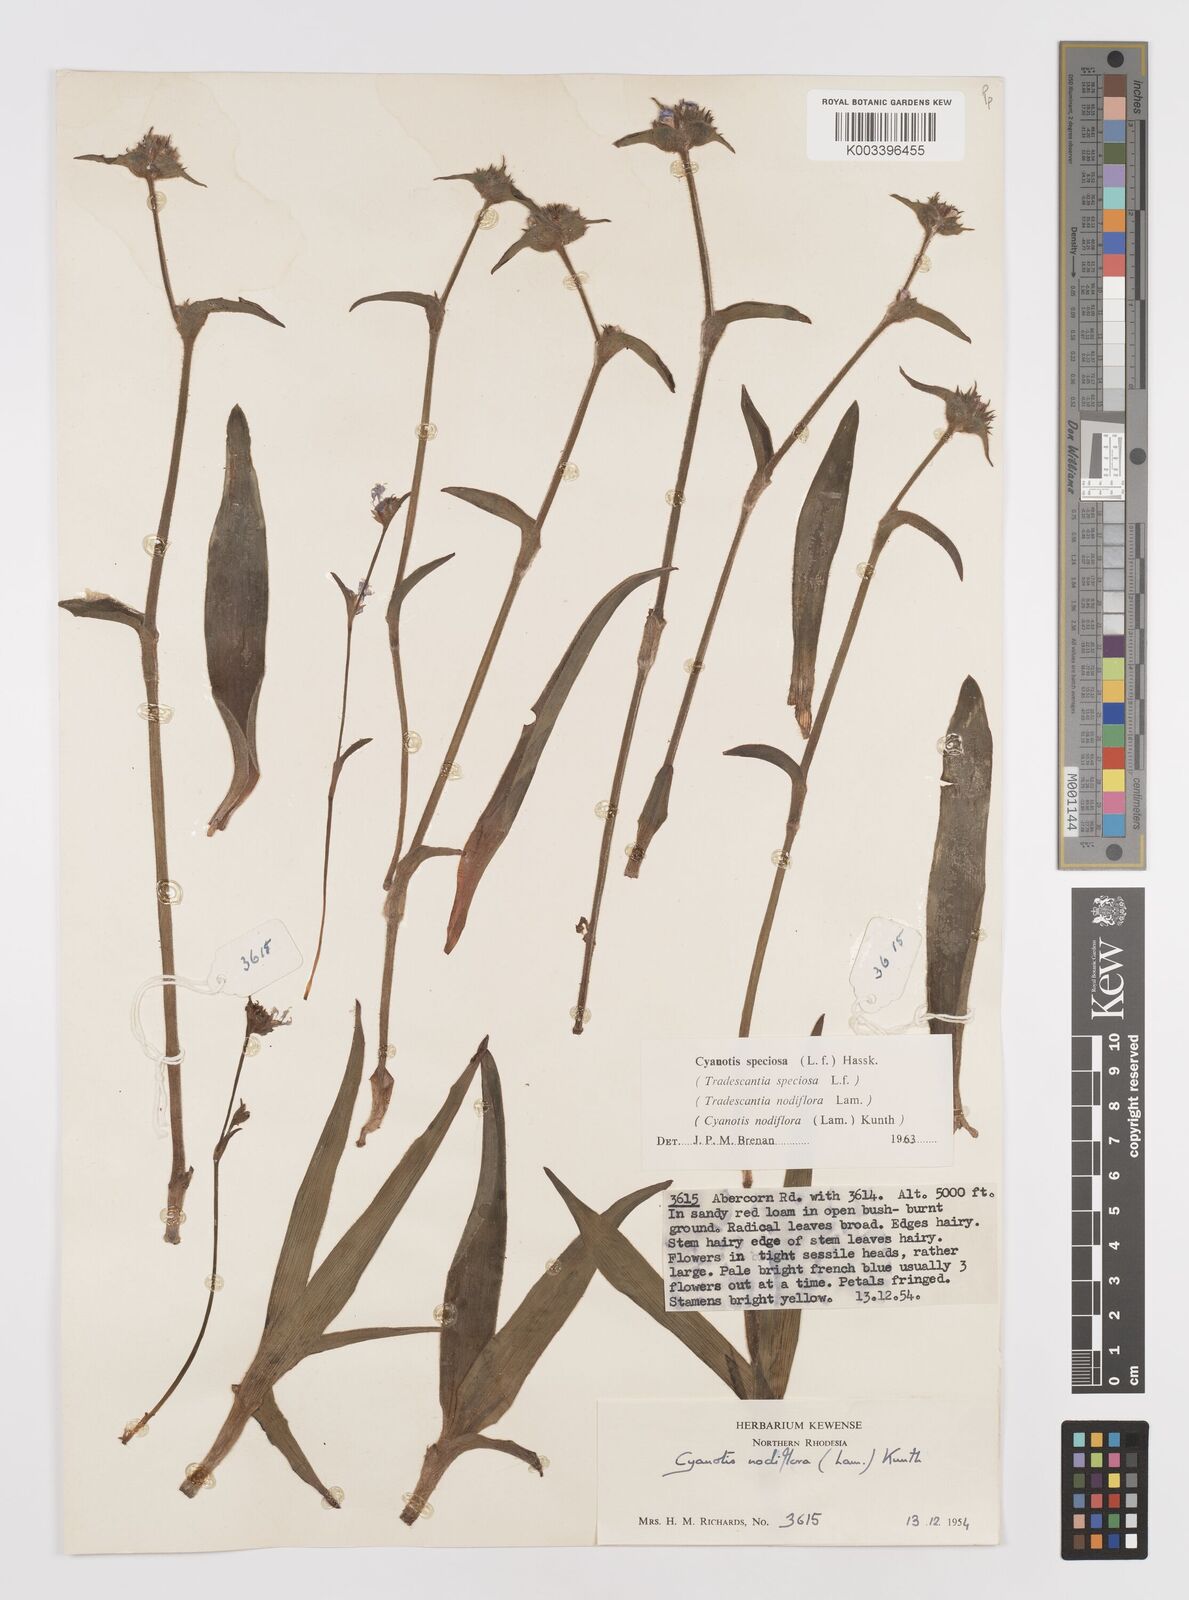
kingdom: Plantae
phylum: Tracheophyta
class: Liliopsida
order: Commelinales
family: Commelinaceae
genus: Cyanotis
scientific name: Cyanotis speciosa
